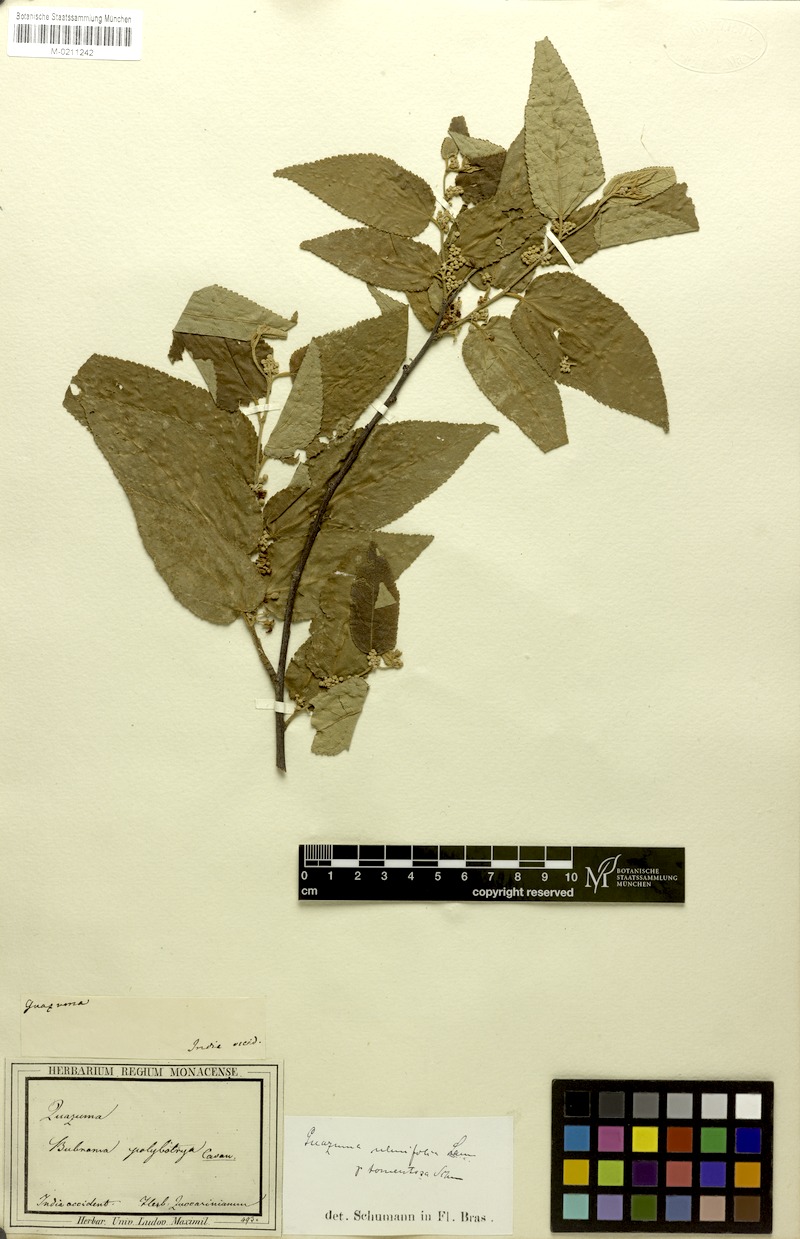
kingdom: Plantae
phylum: Tracheophyta
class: Magnoliopsida
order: Malvales
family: Malvaceae
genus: Guazuma
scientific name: Guazuma ulmifolia
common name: Bastard-cedar
